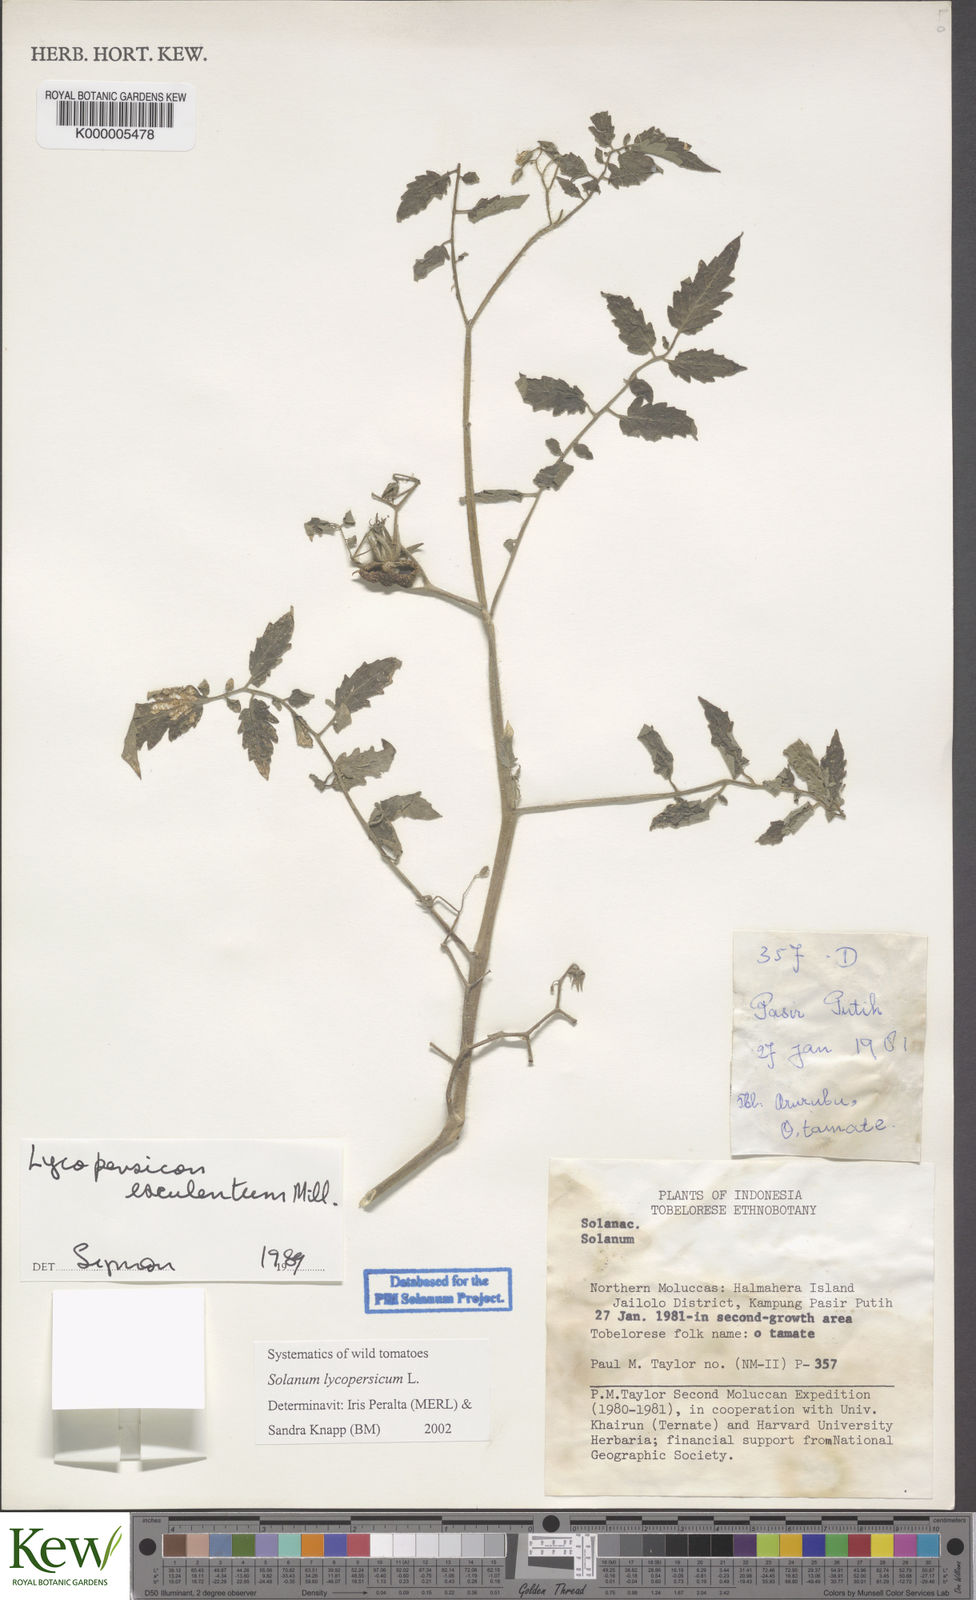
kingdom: Plantae
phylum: Tracheophyta
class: Magnoliopsida
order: Solanales
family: Solanaceae
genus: Solanum
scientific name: Solanum lycopersicum
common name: Garden tomato
